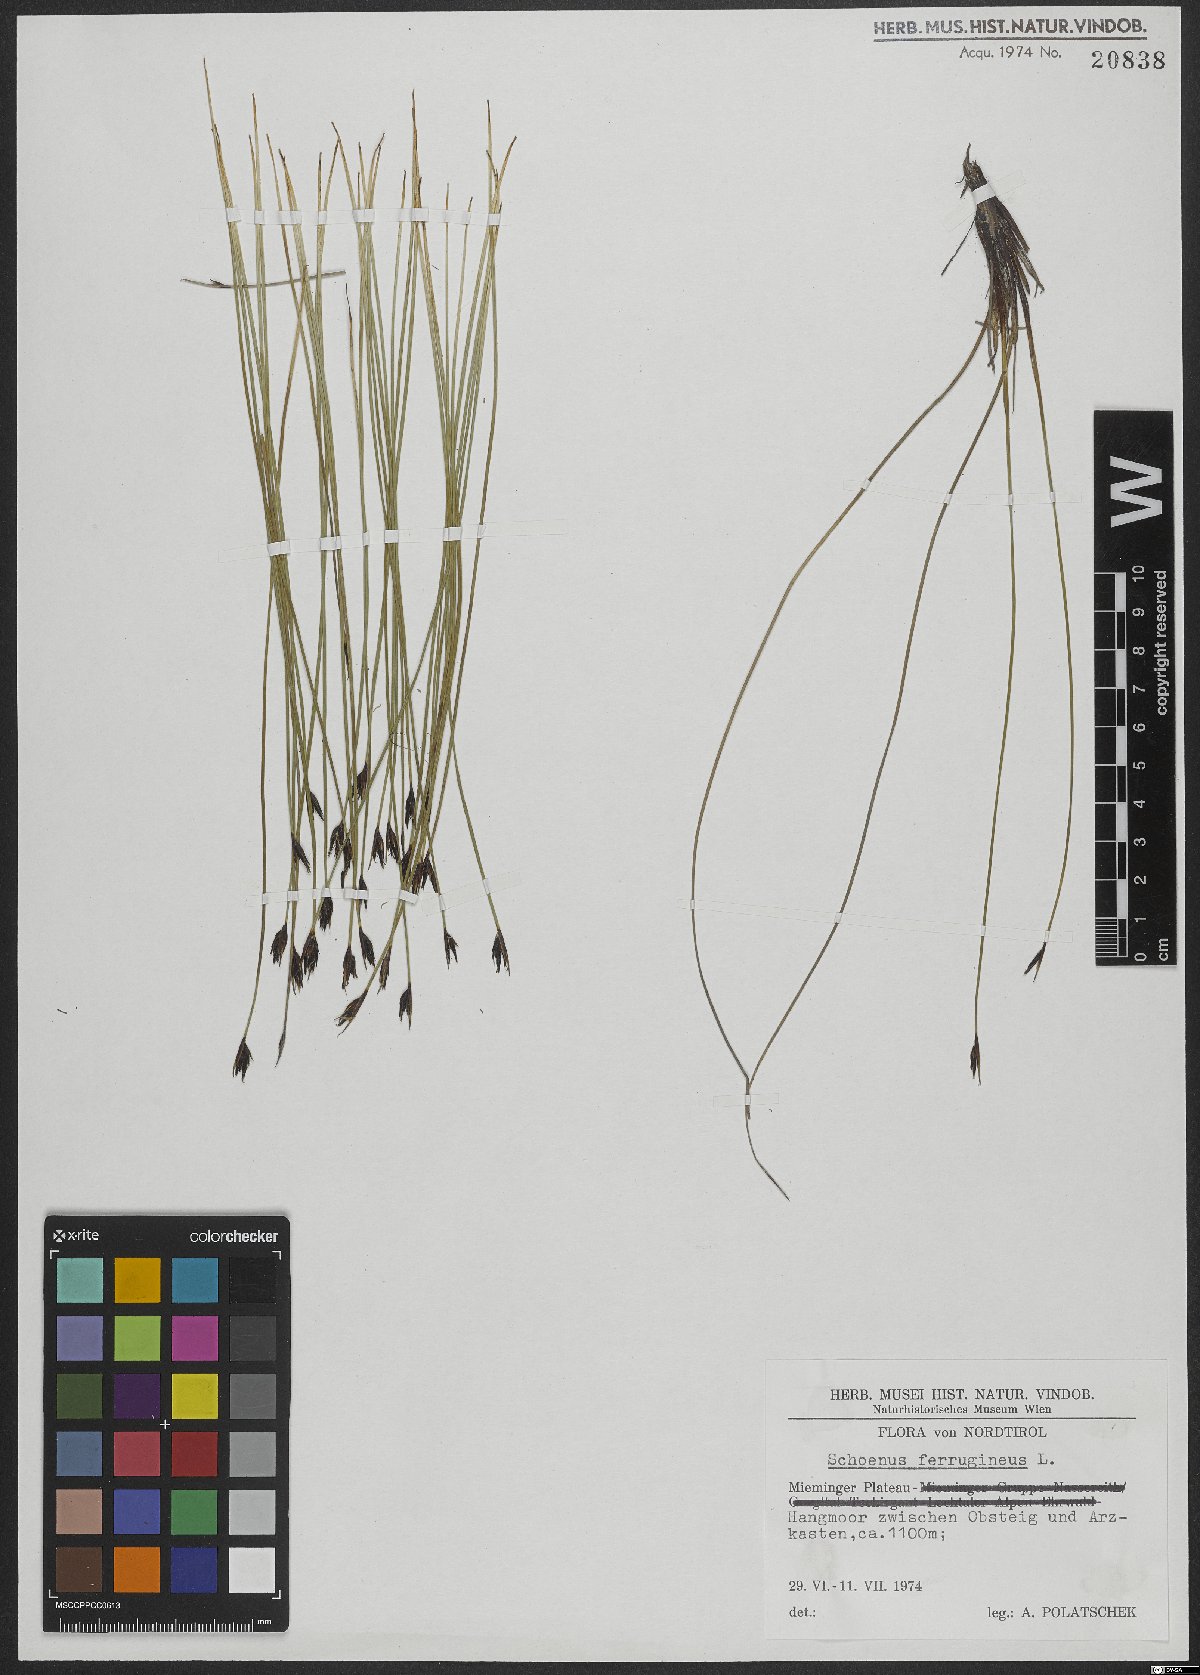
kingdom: Plantae
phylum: Tracheophyta
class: Liliopsida
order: Poales
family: Cyperaceae
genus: Schoenus
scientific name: Schoenus ferrugineus
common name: Brown bog-rush
